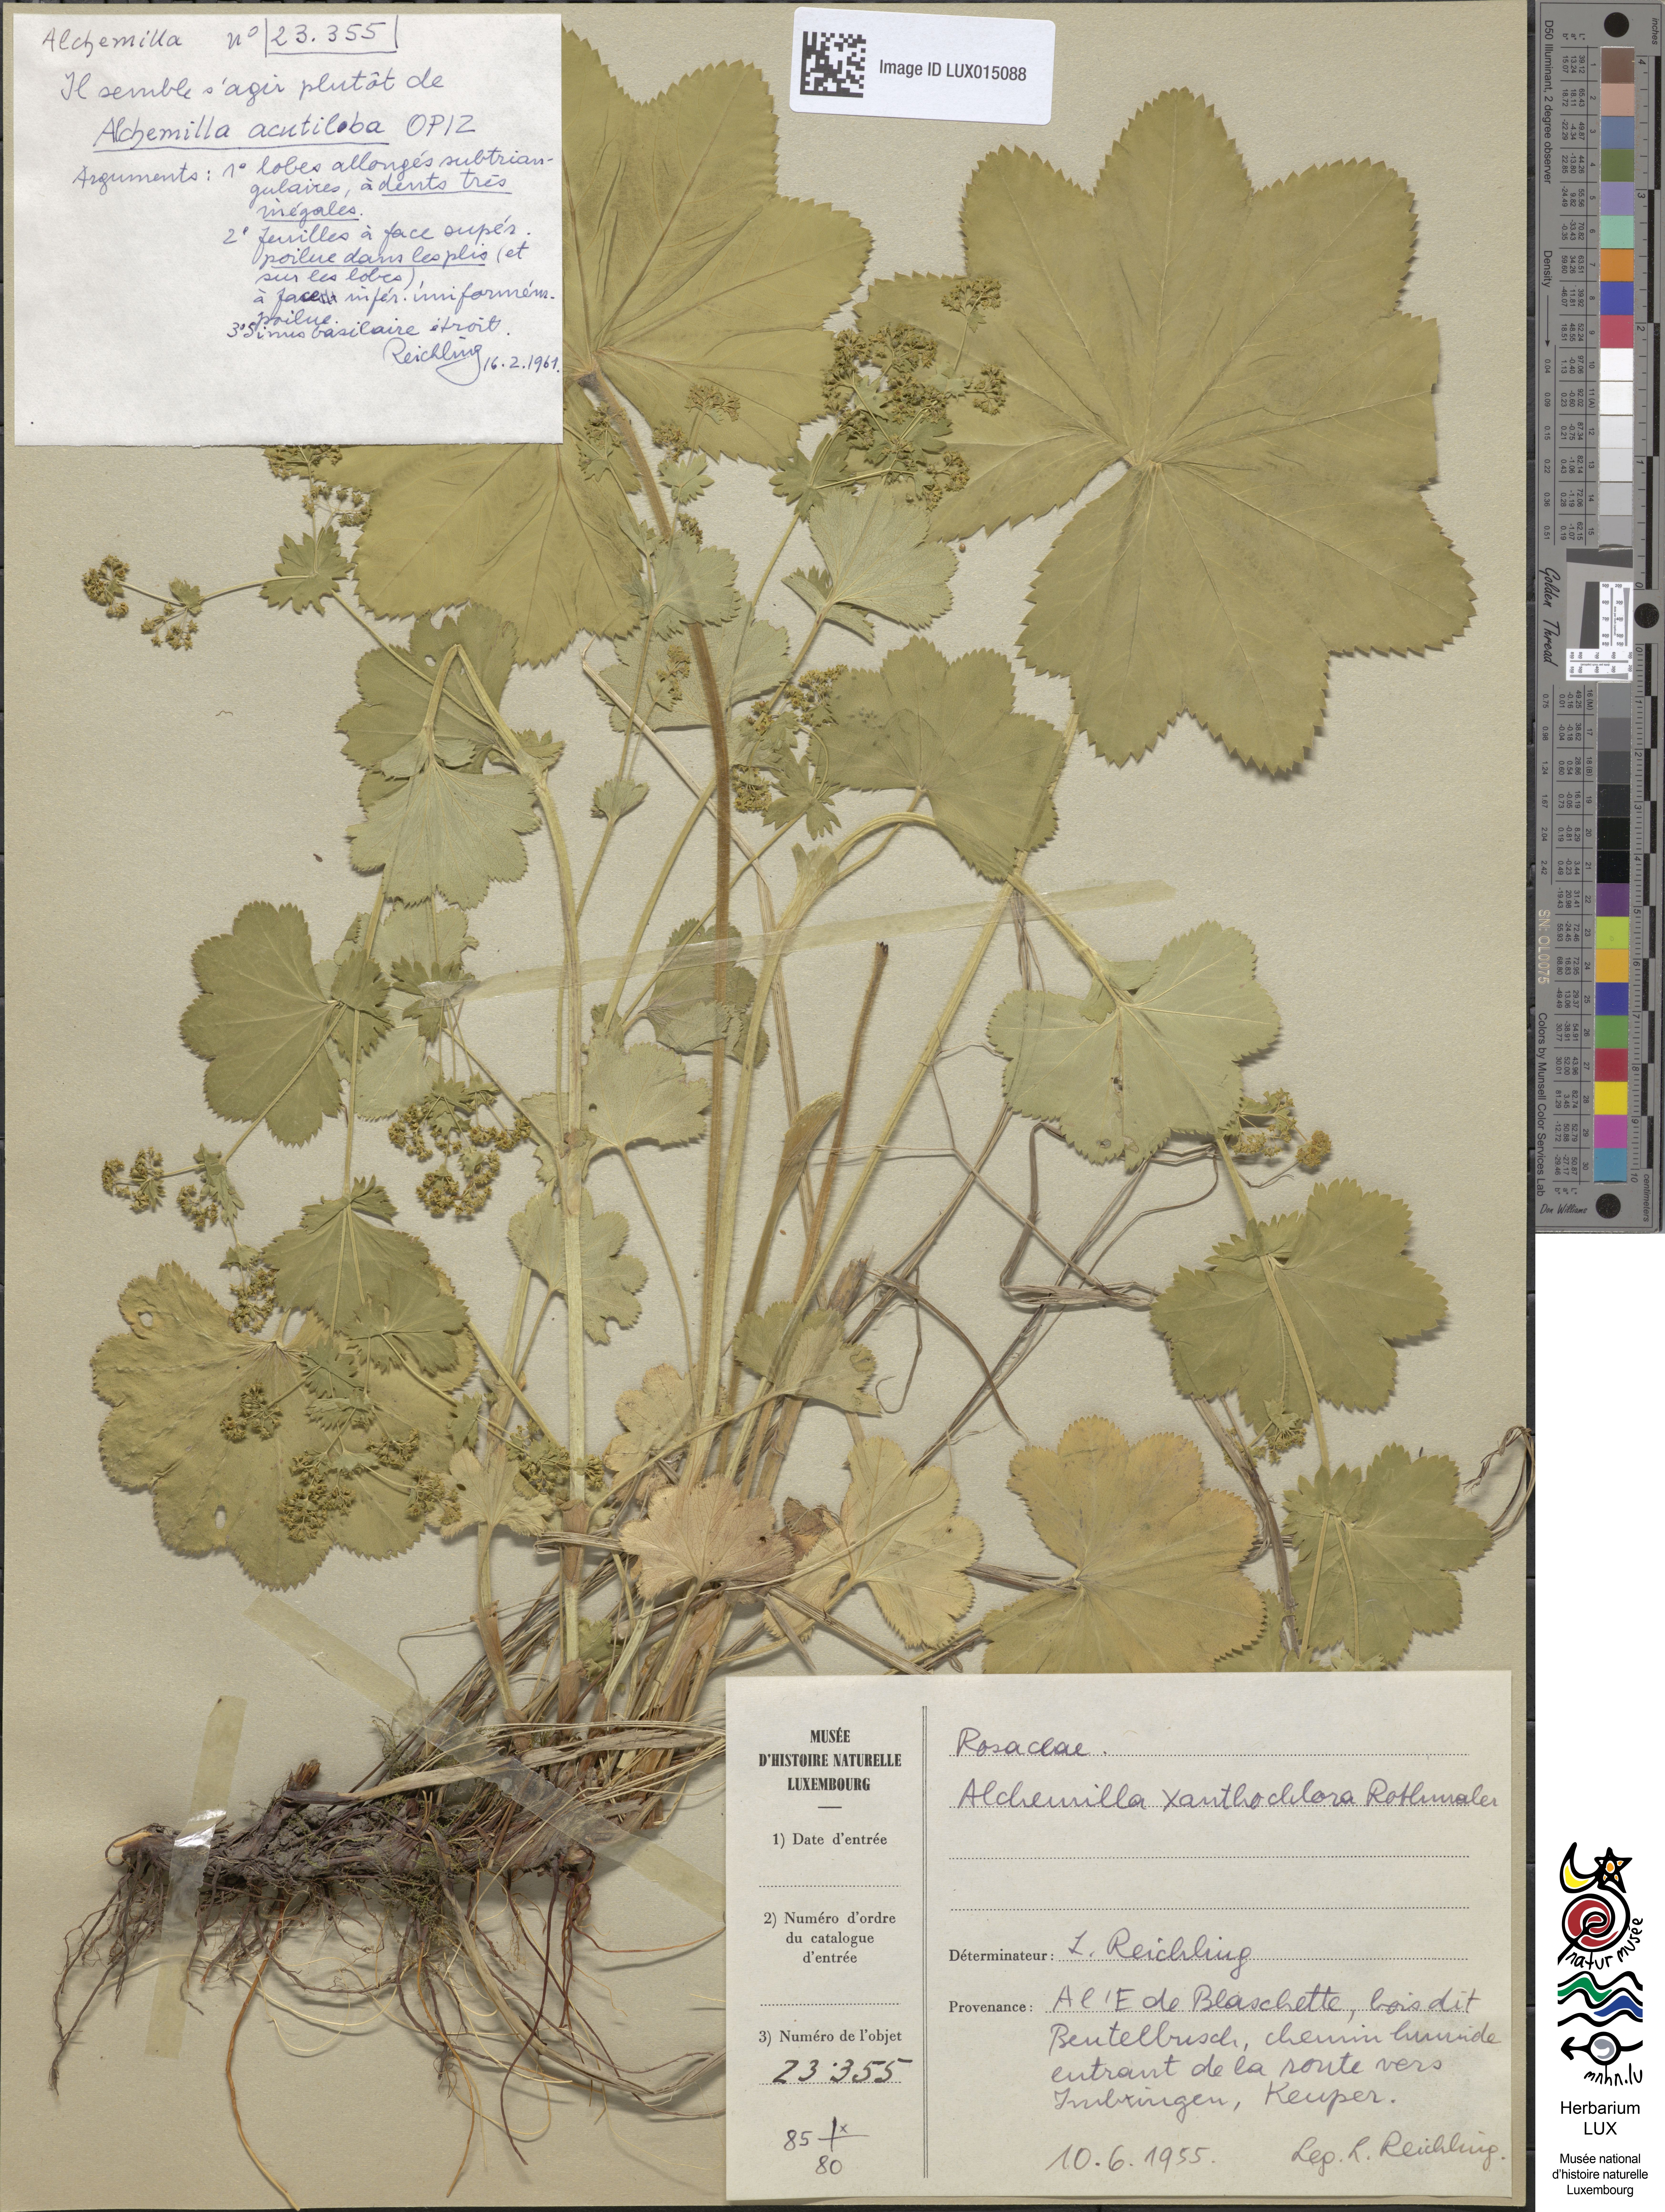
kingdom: Plantae
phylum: Tracheophyta
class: Magnoliopsida
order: Rosales
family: Rosaceae
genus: Alchemilla
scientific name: Alchemilla vulgaris
